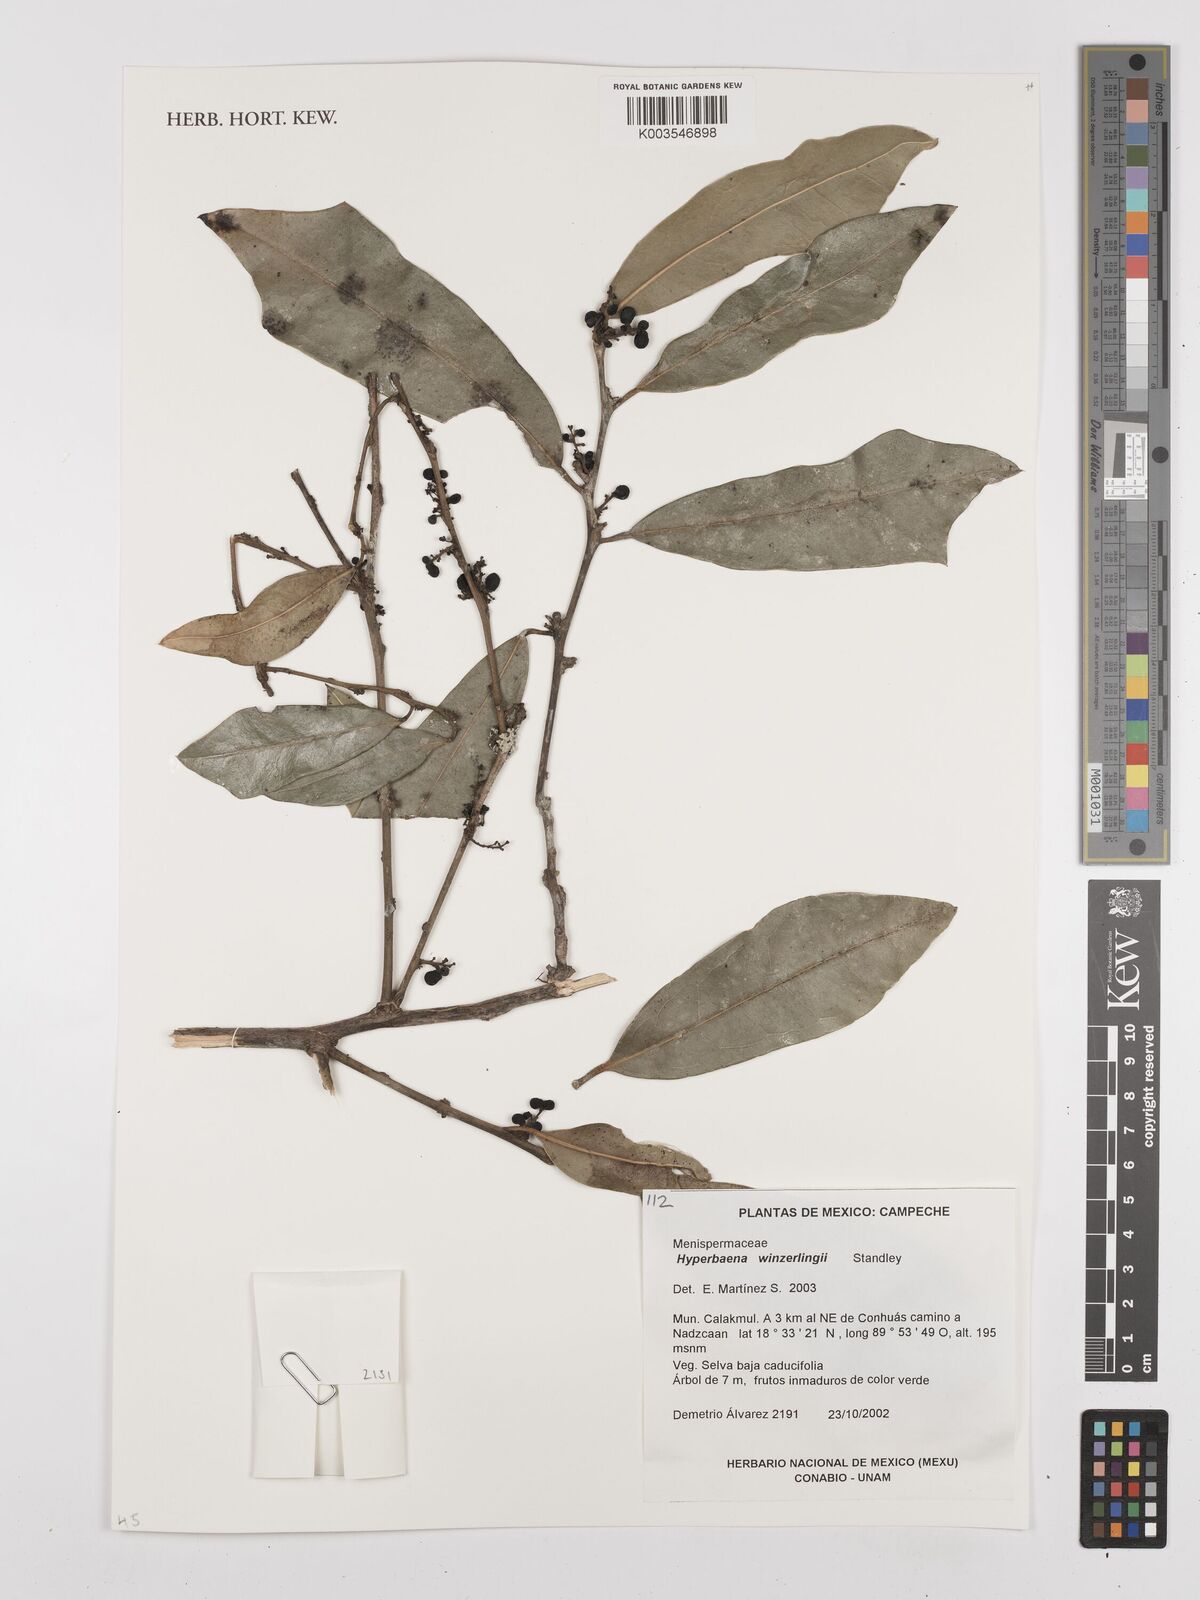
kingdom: Plantae
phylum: Tracheophyta
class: Magnoliopsida
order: Ranunculales
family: Menispermaceae
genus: Hyperbaena
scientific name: Hyperbaena winzerlingii
